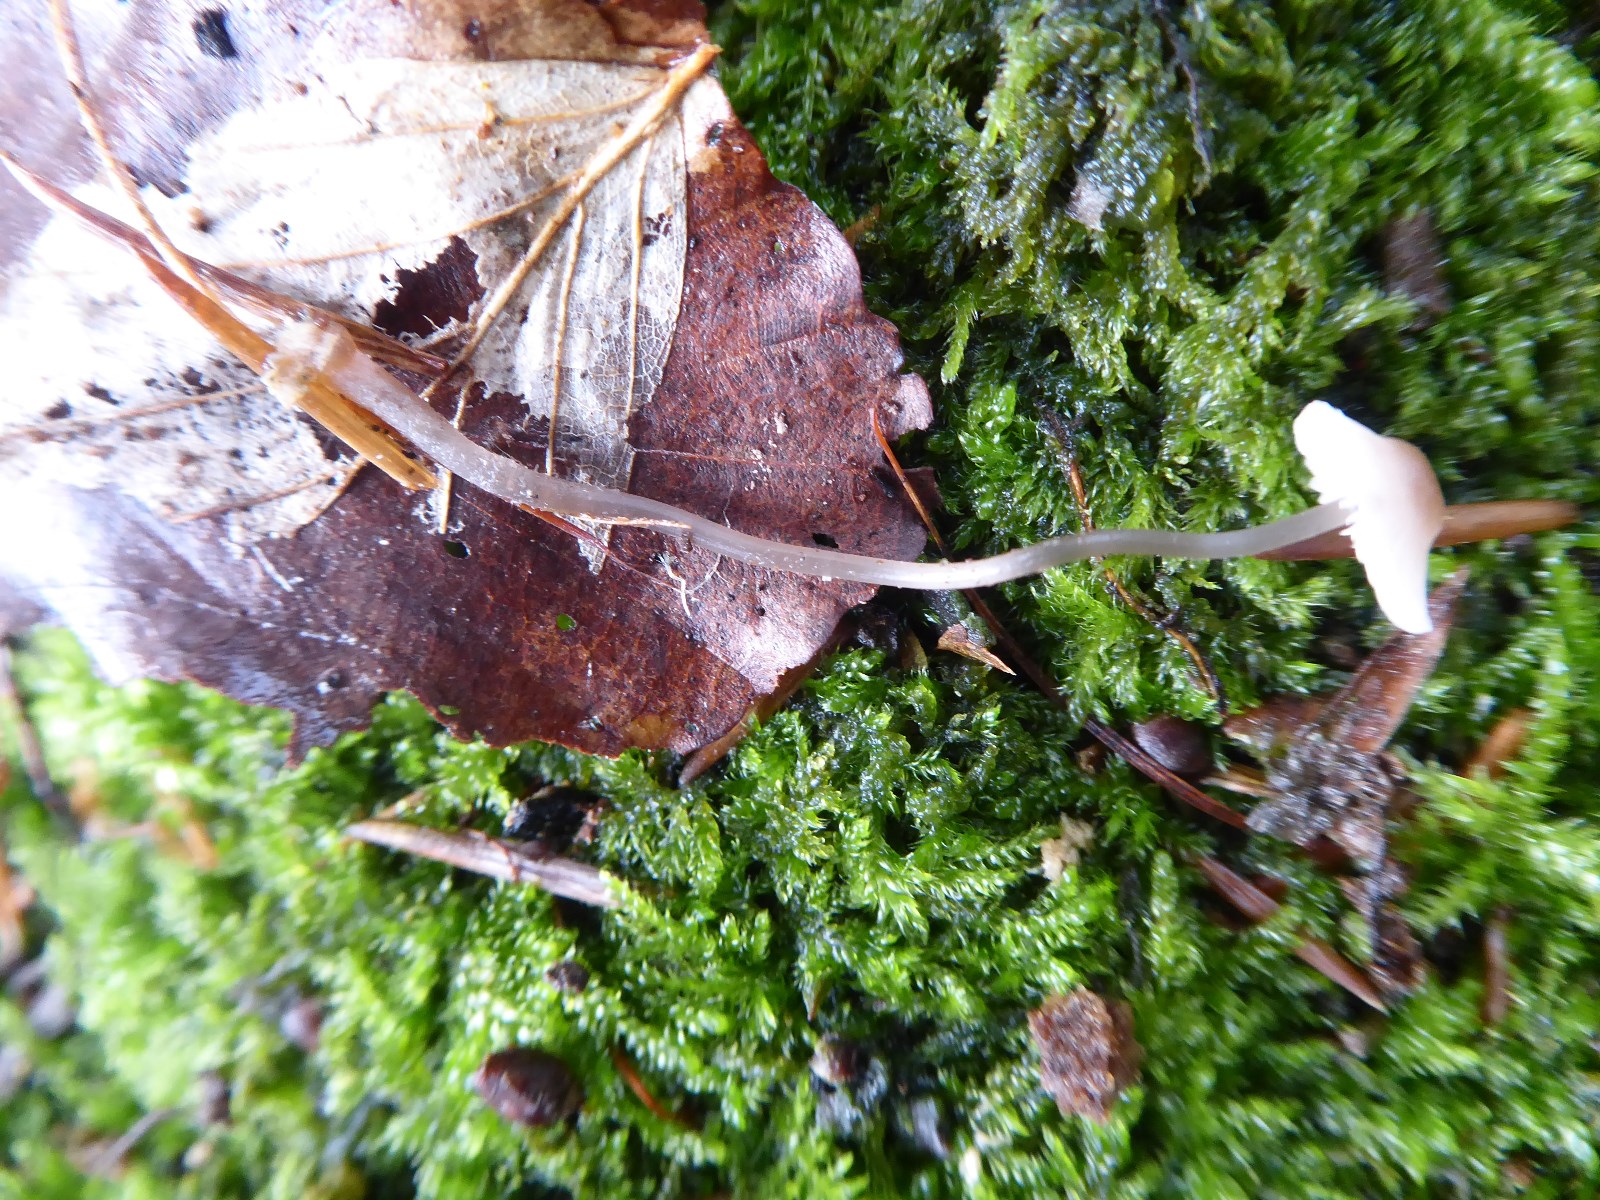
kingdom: Fungi
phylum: Basidiomycota
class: Agaricomycetes
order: Agaricales
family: Mycenaceae
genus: Mycena
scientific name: Mycena
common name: huesvamp
